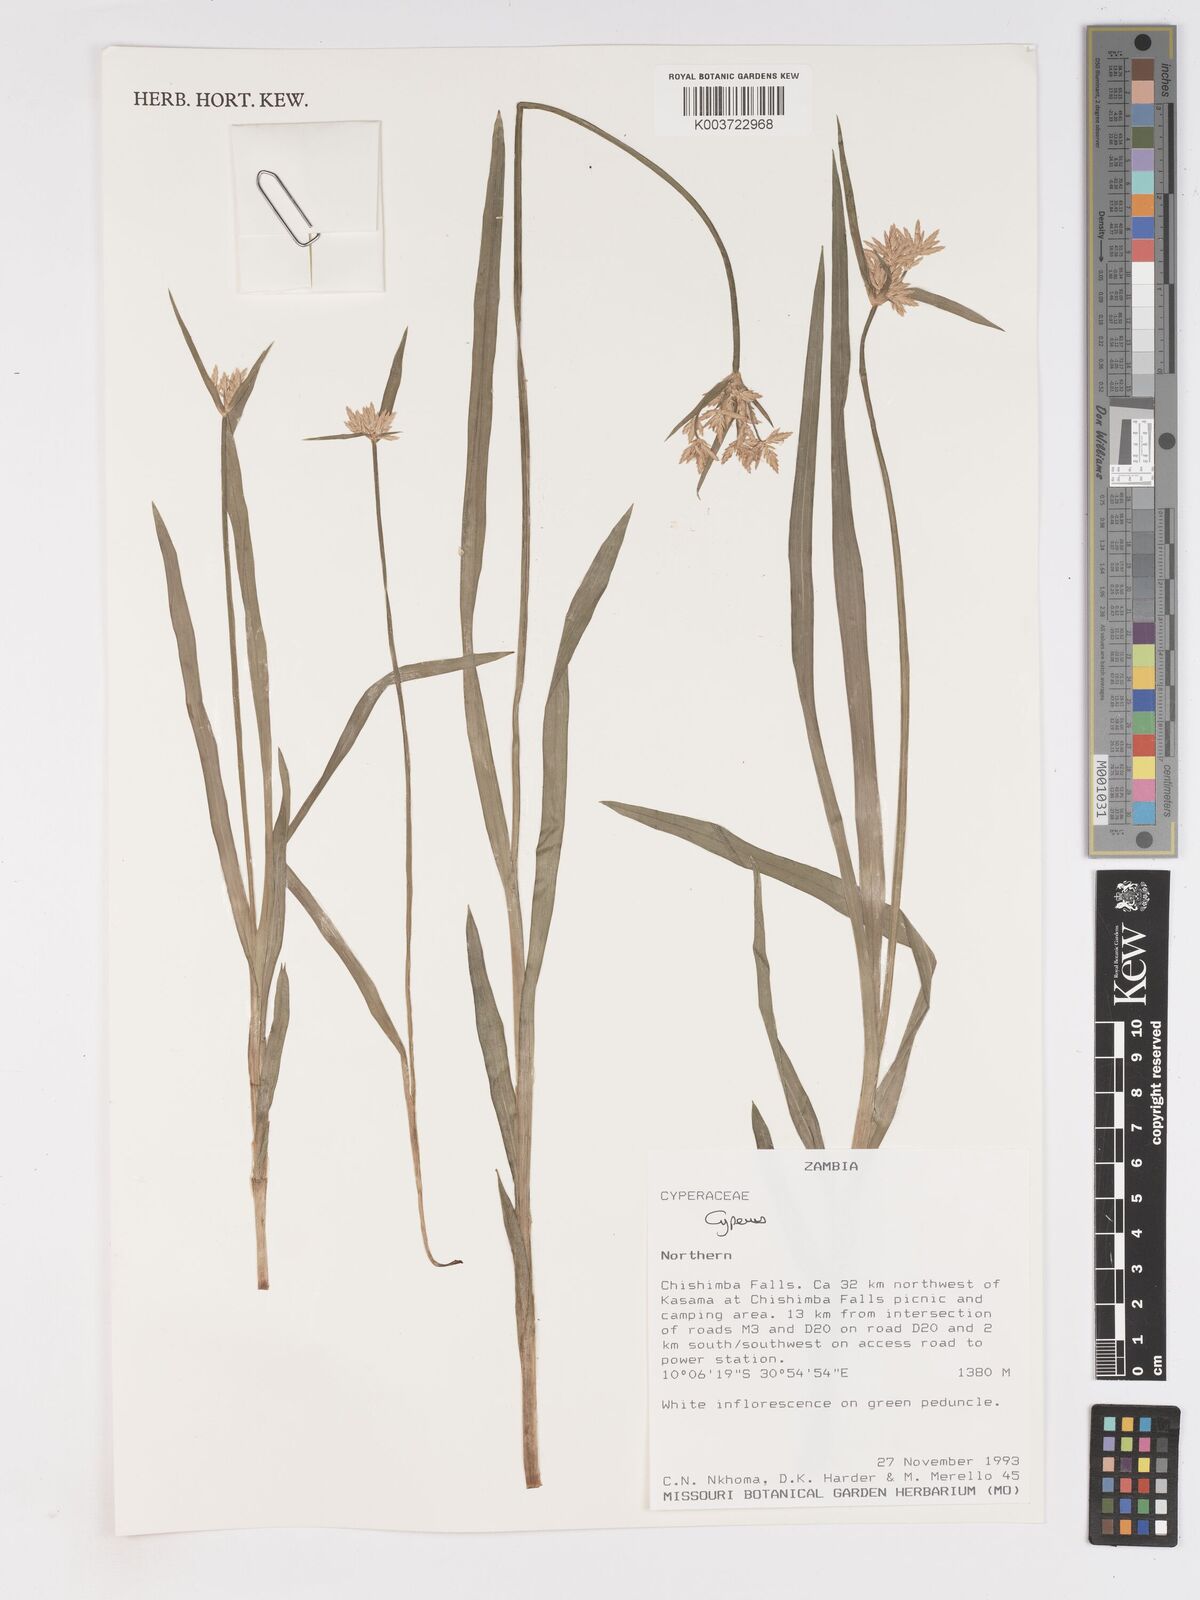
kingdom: Plantae
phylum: Tracheophyta
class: Liliopsida
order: Poales
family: Cyperaceae
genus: Cyperus
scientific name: Cyperus chinsalensis
